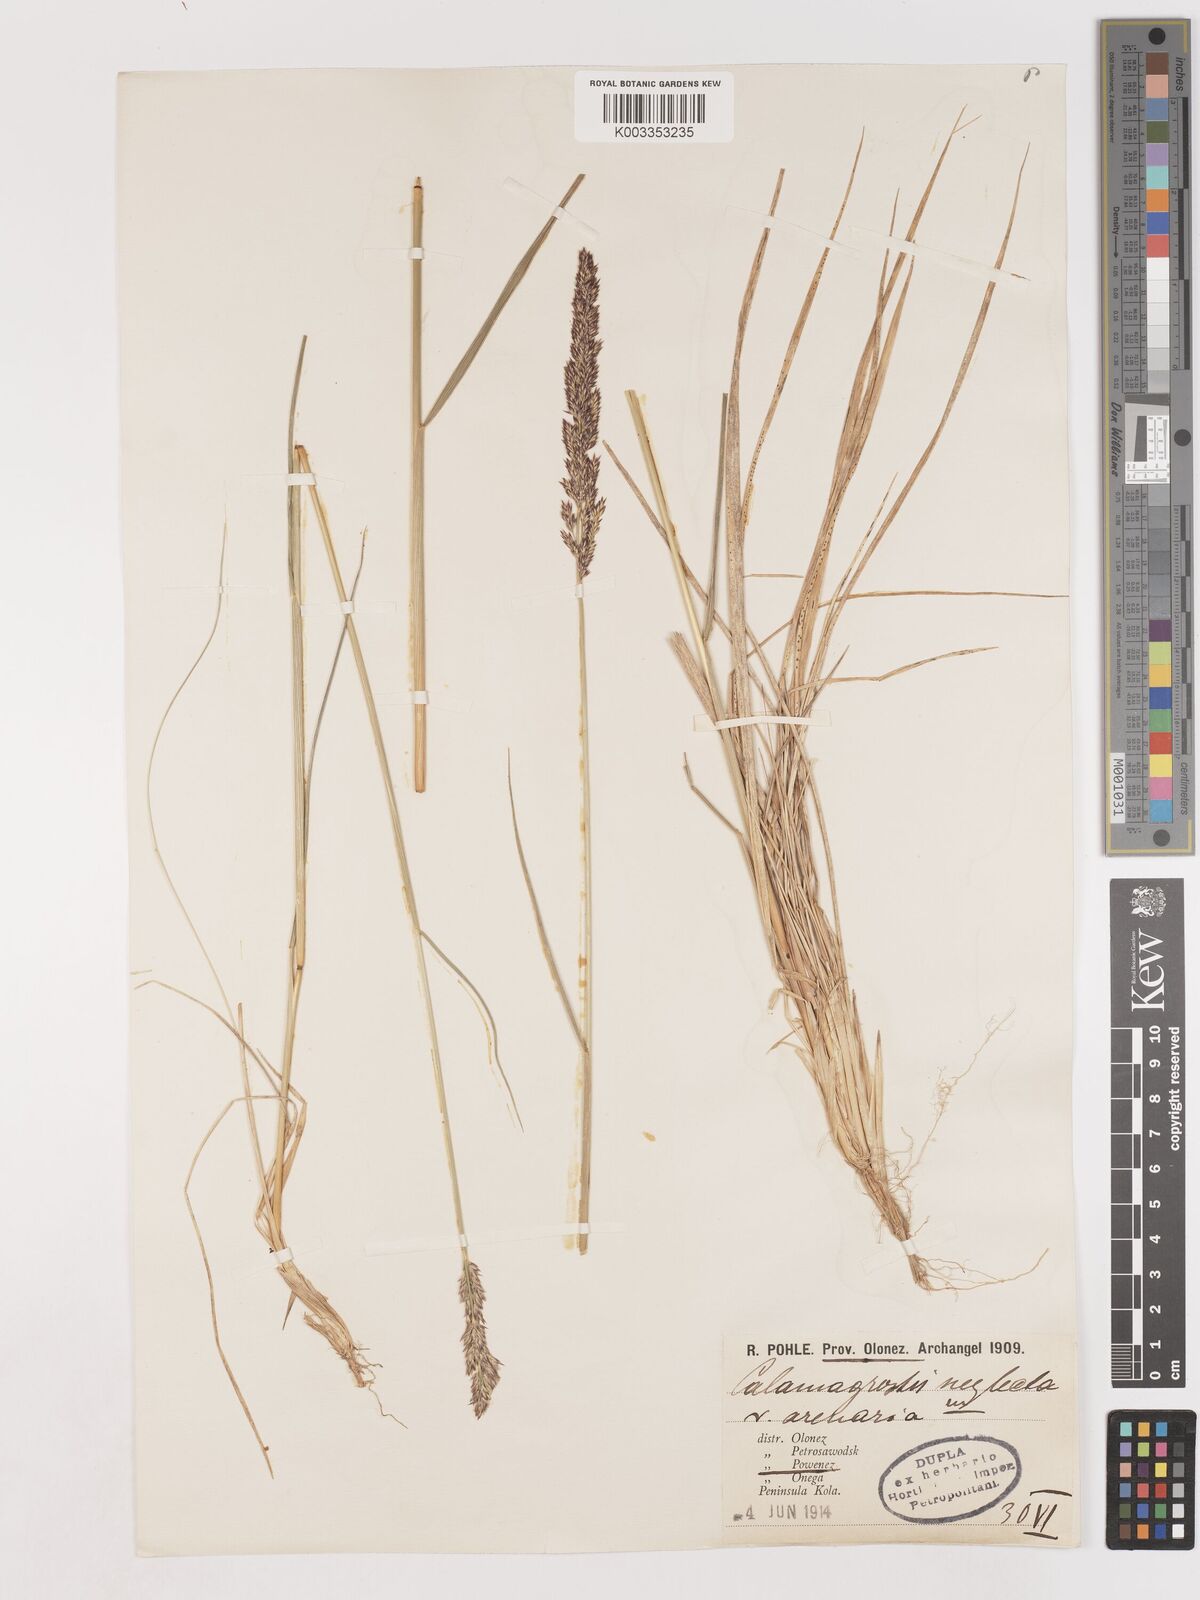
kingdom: Plantae
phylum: Tracheophyta
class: Liliopsida
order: Poales
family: Poaceae
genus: Cinnagrostis
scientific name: Cinnagrostis recta
